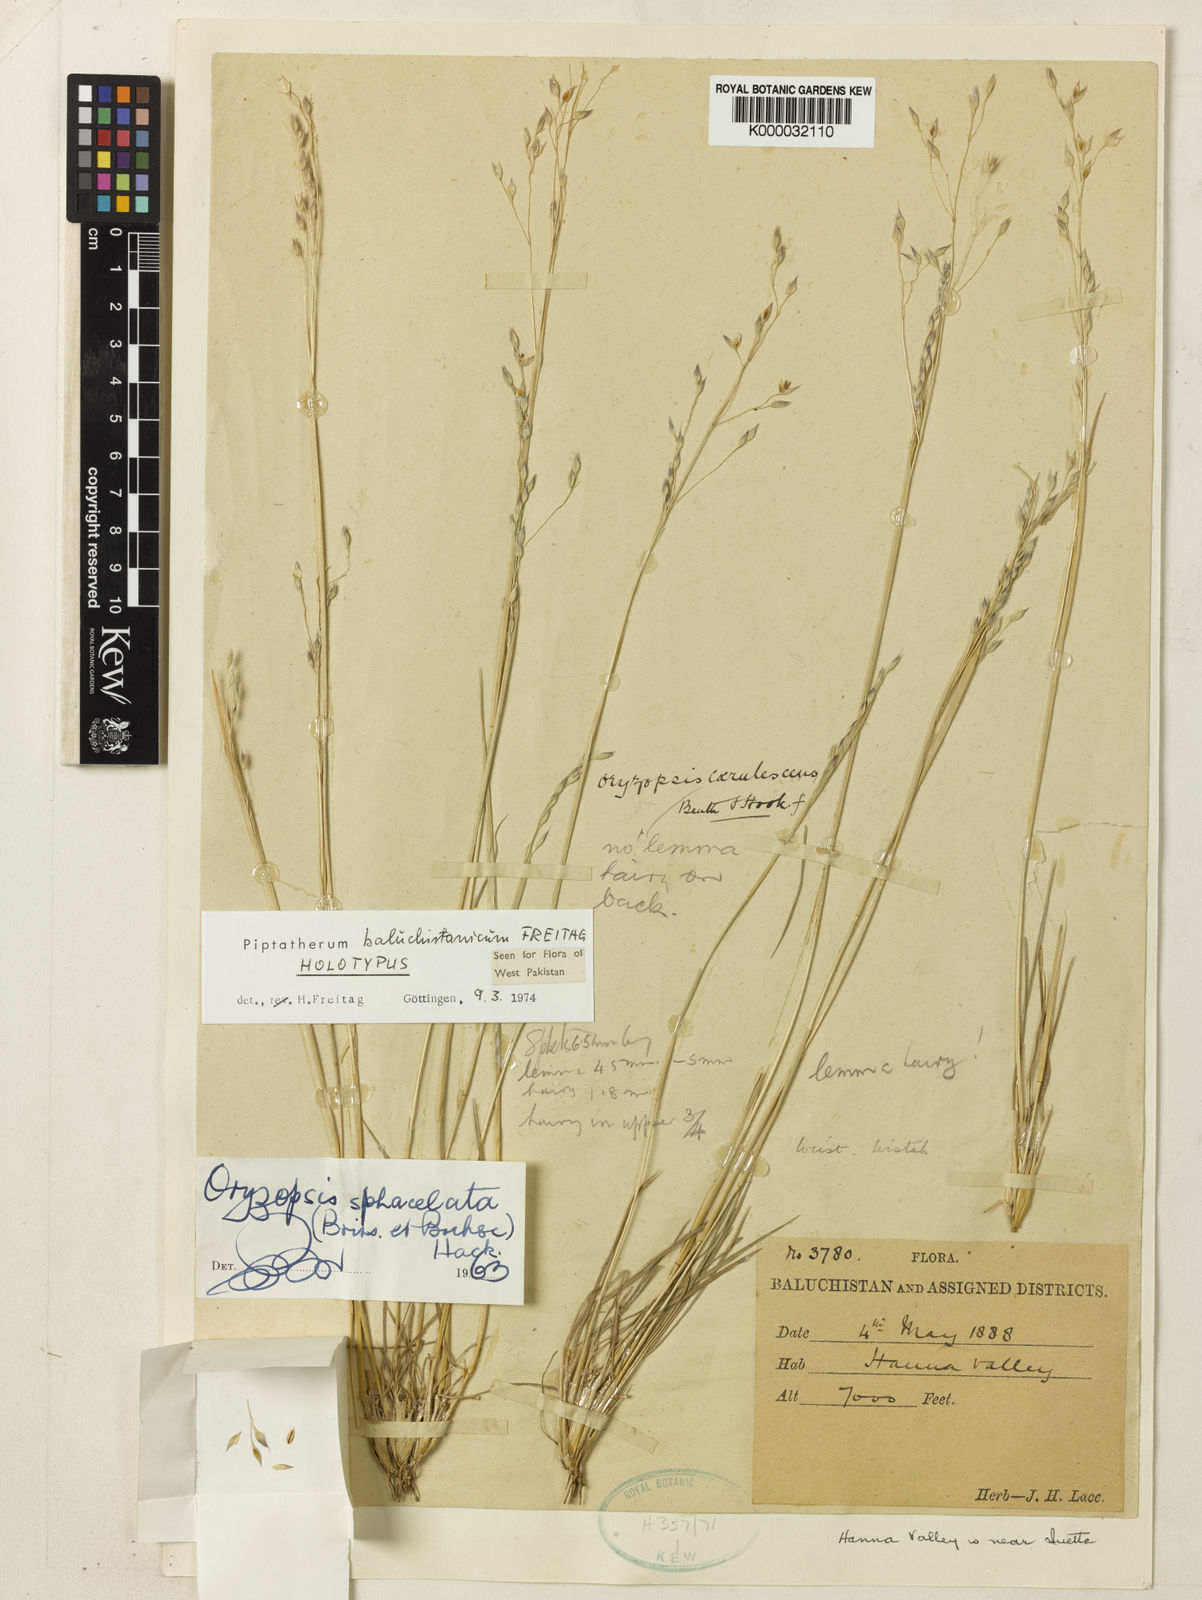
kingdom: Plantae
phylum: Tracheophyta
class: Liliopsida
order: Poales
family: Poaceae
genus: Piptatherum
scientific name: Piptatherum baluchistanicum
